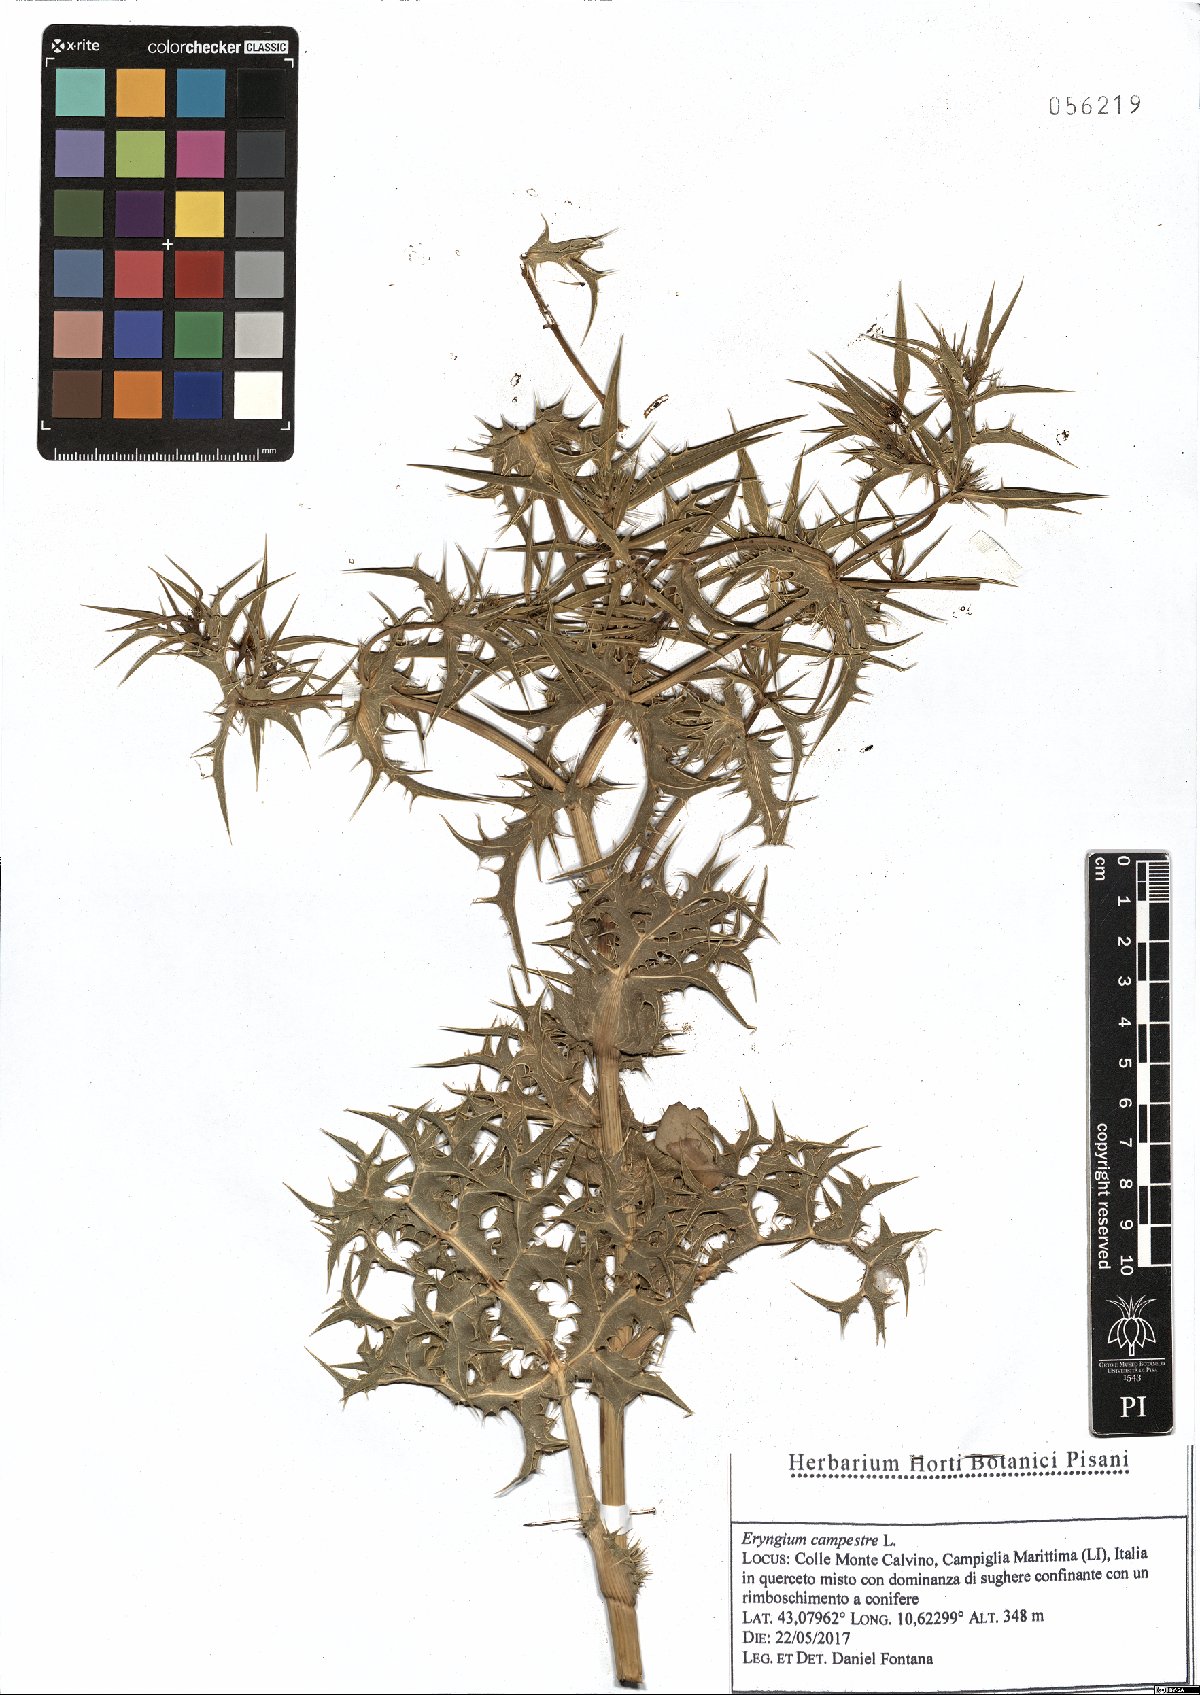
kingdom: Plantae
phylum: Tracheophyta
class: Magnoliopsida
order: Apiales
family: Apiaceae
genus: Eryngium
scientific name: Eryngium campestre
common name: Field eryngo
